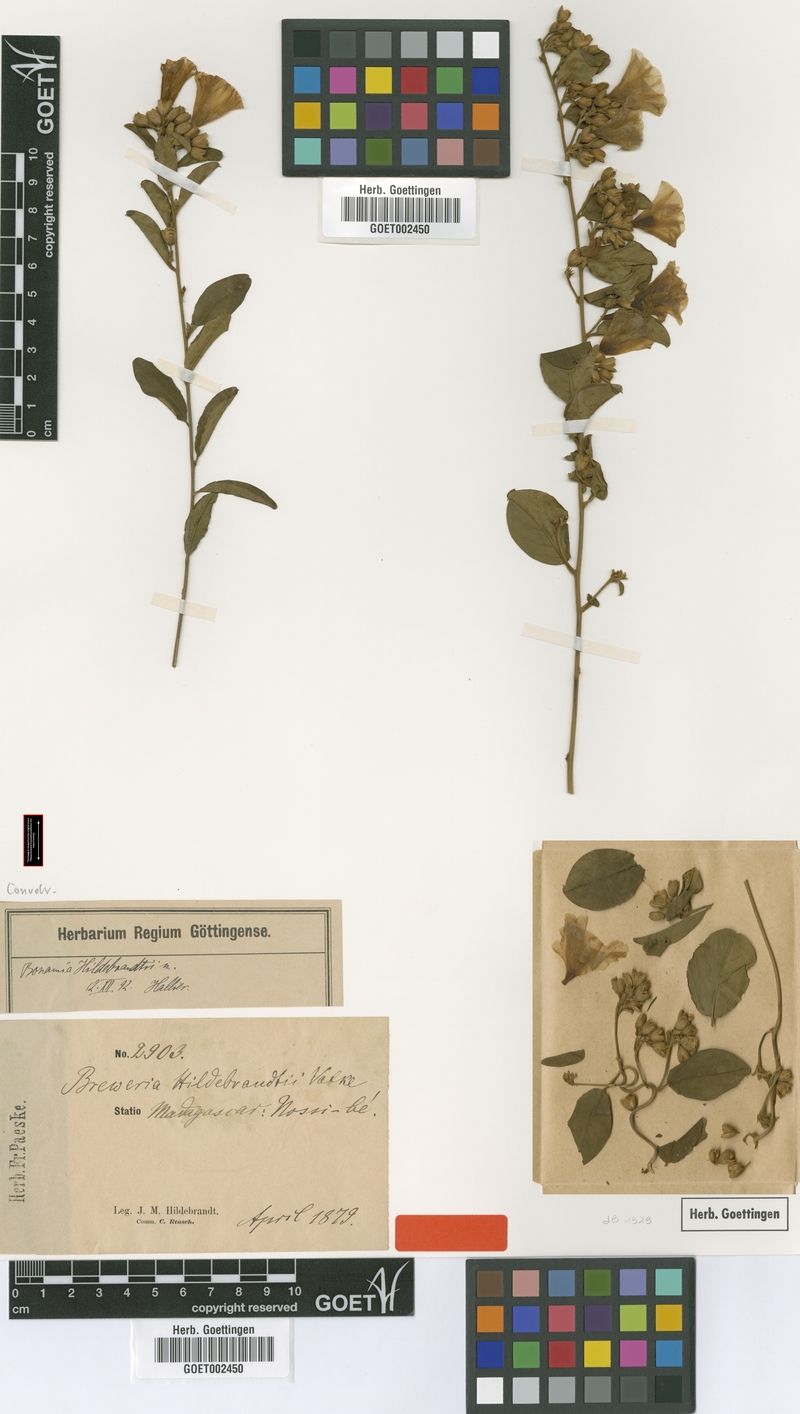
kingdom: Plantae
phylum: Tracheophyta
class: Magnoliopsida
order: Solanales
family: Convolvulaceae
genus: Bonamia
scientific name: Bonamia spectabilis
